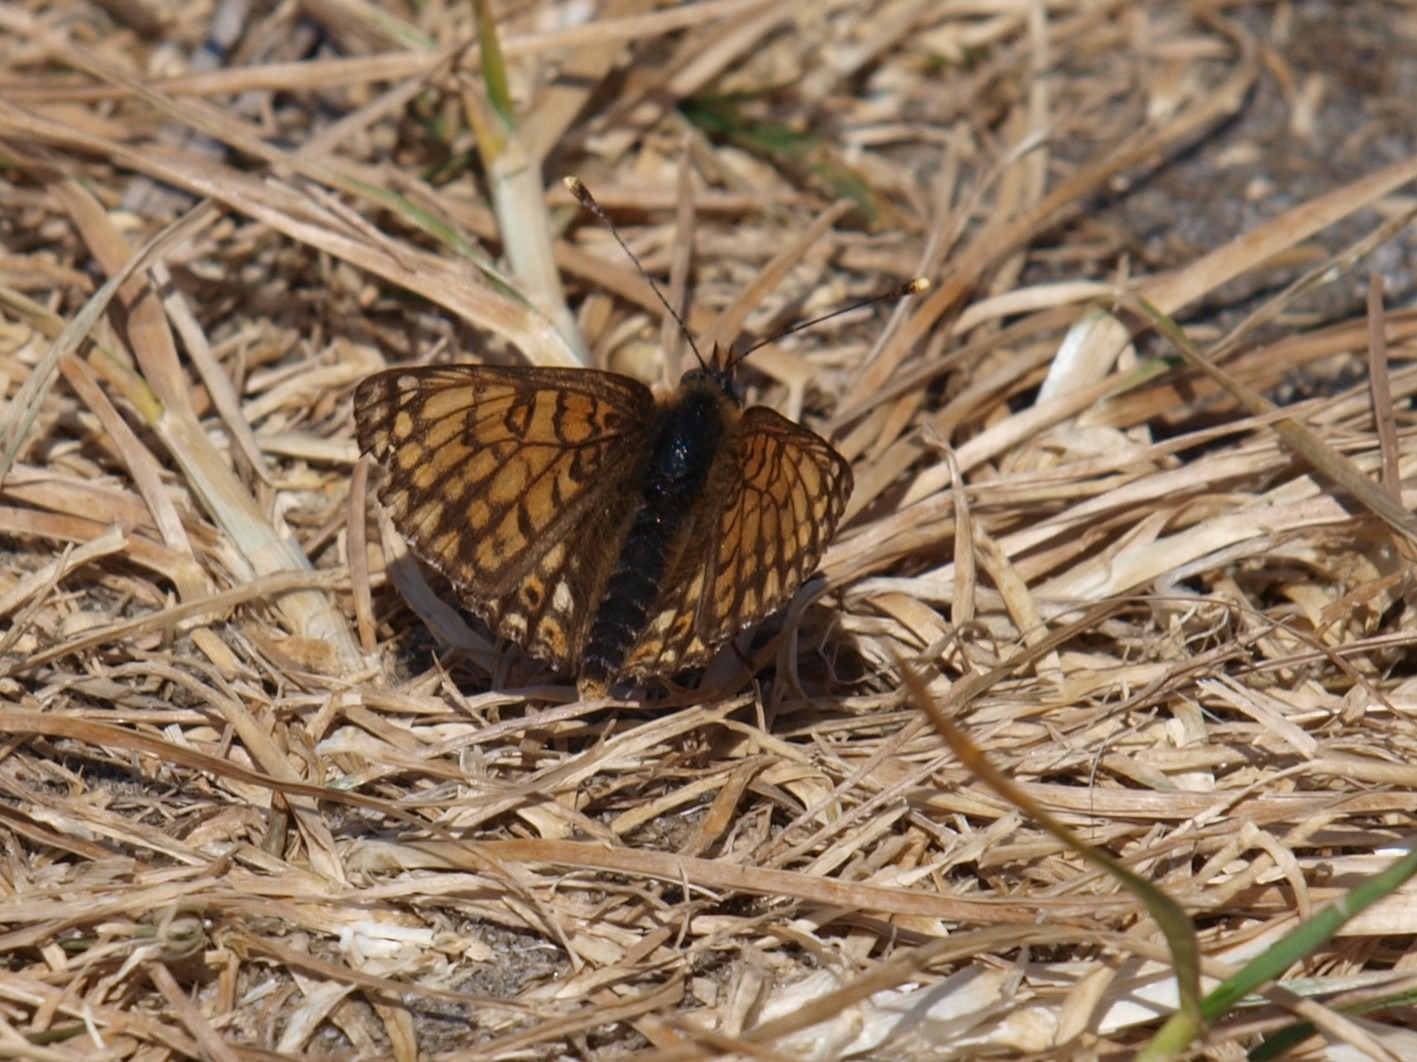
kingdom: Animalia
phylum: Arthropoda
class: Insecta
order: Lepidoptera
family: Nymphalidae
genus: Melitaea
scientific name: Melitaea cinxia
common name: Okkergul pletvinge
